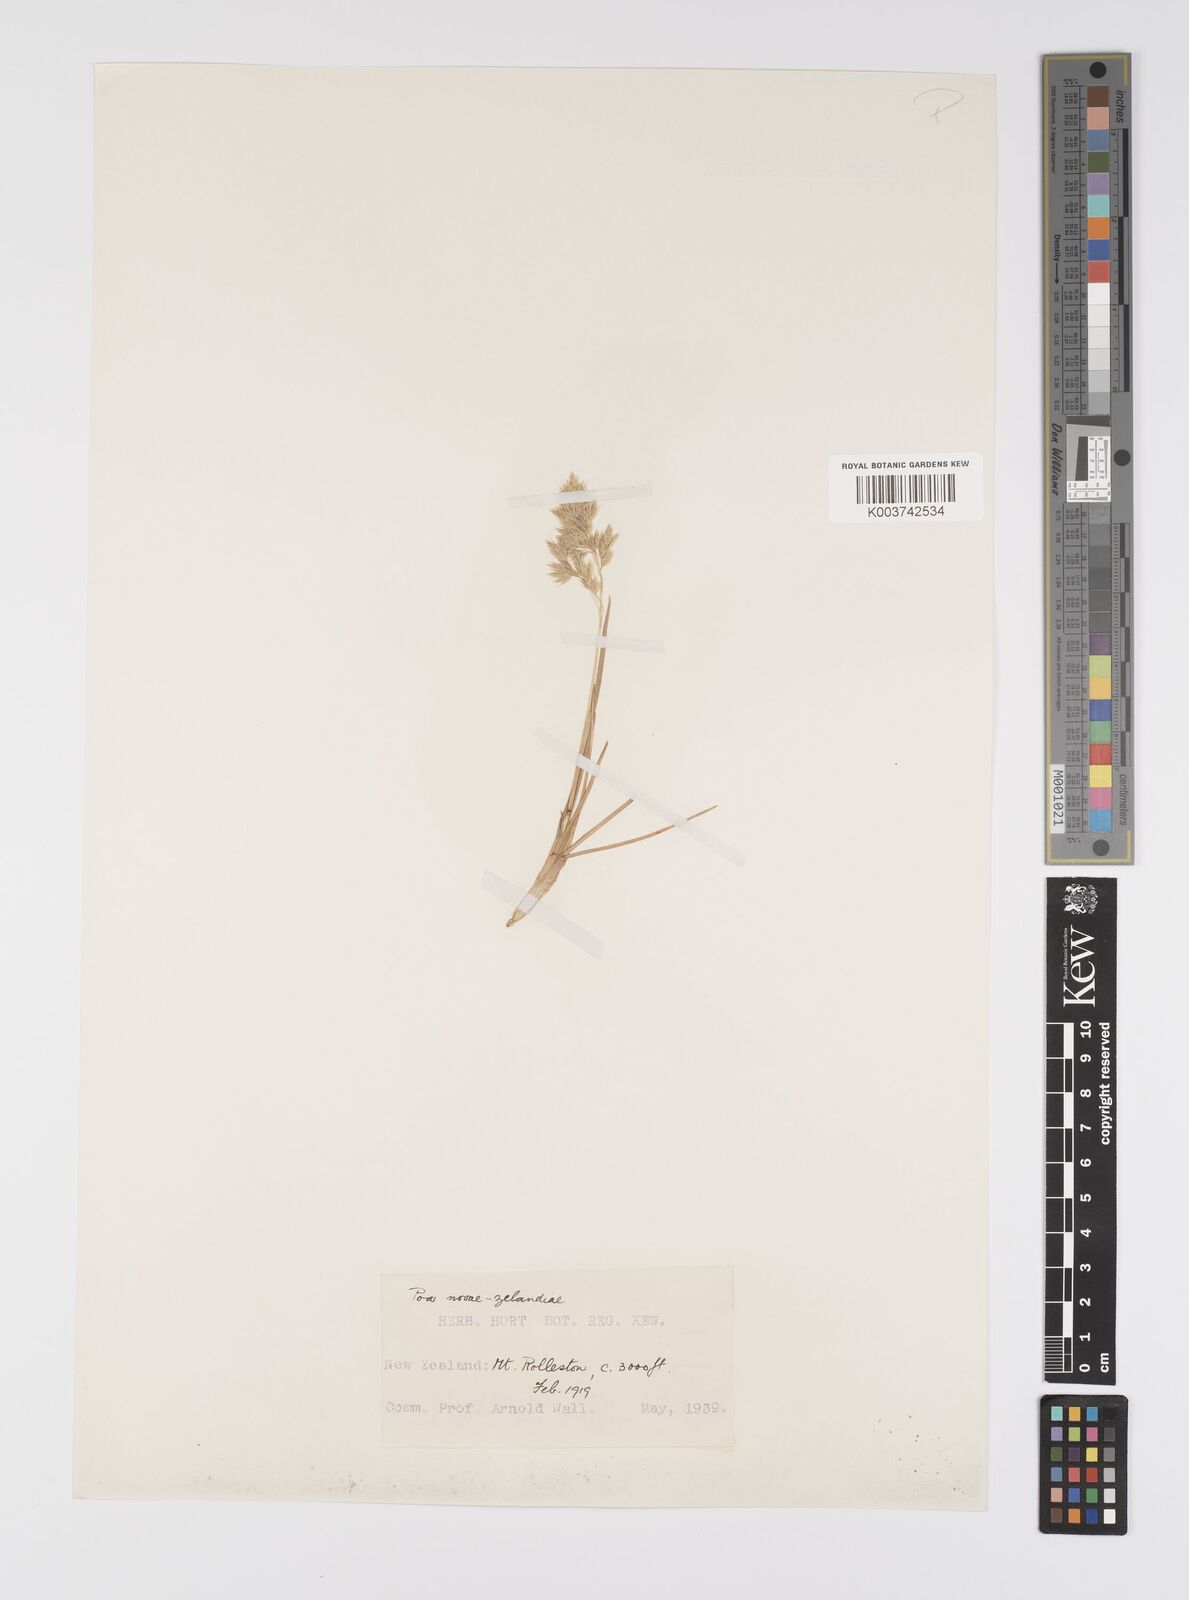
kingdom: Plantae
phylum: Tracheophyta
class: Liliopsida
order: Poales
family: Poaceae
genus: Poa
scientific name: Poa novae-zelandiae
